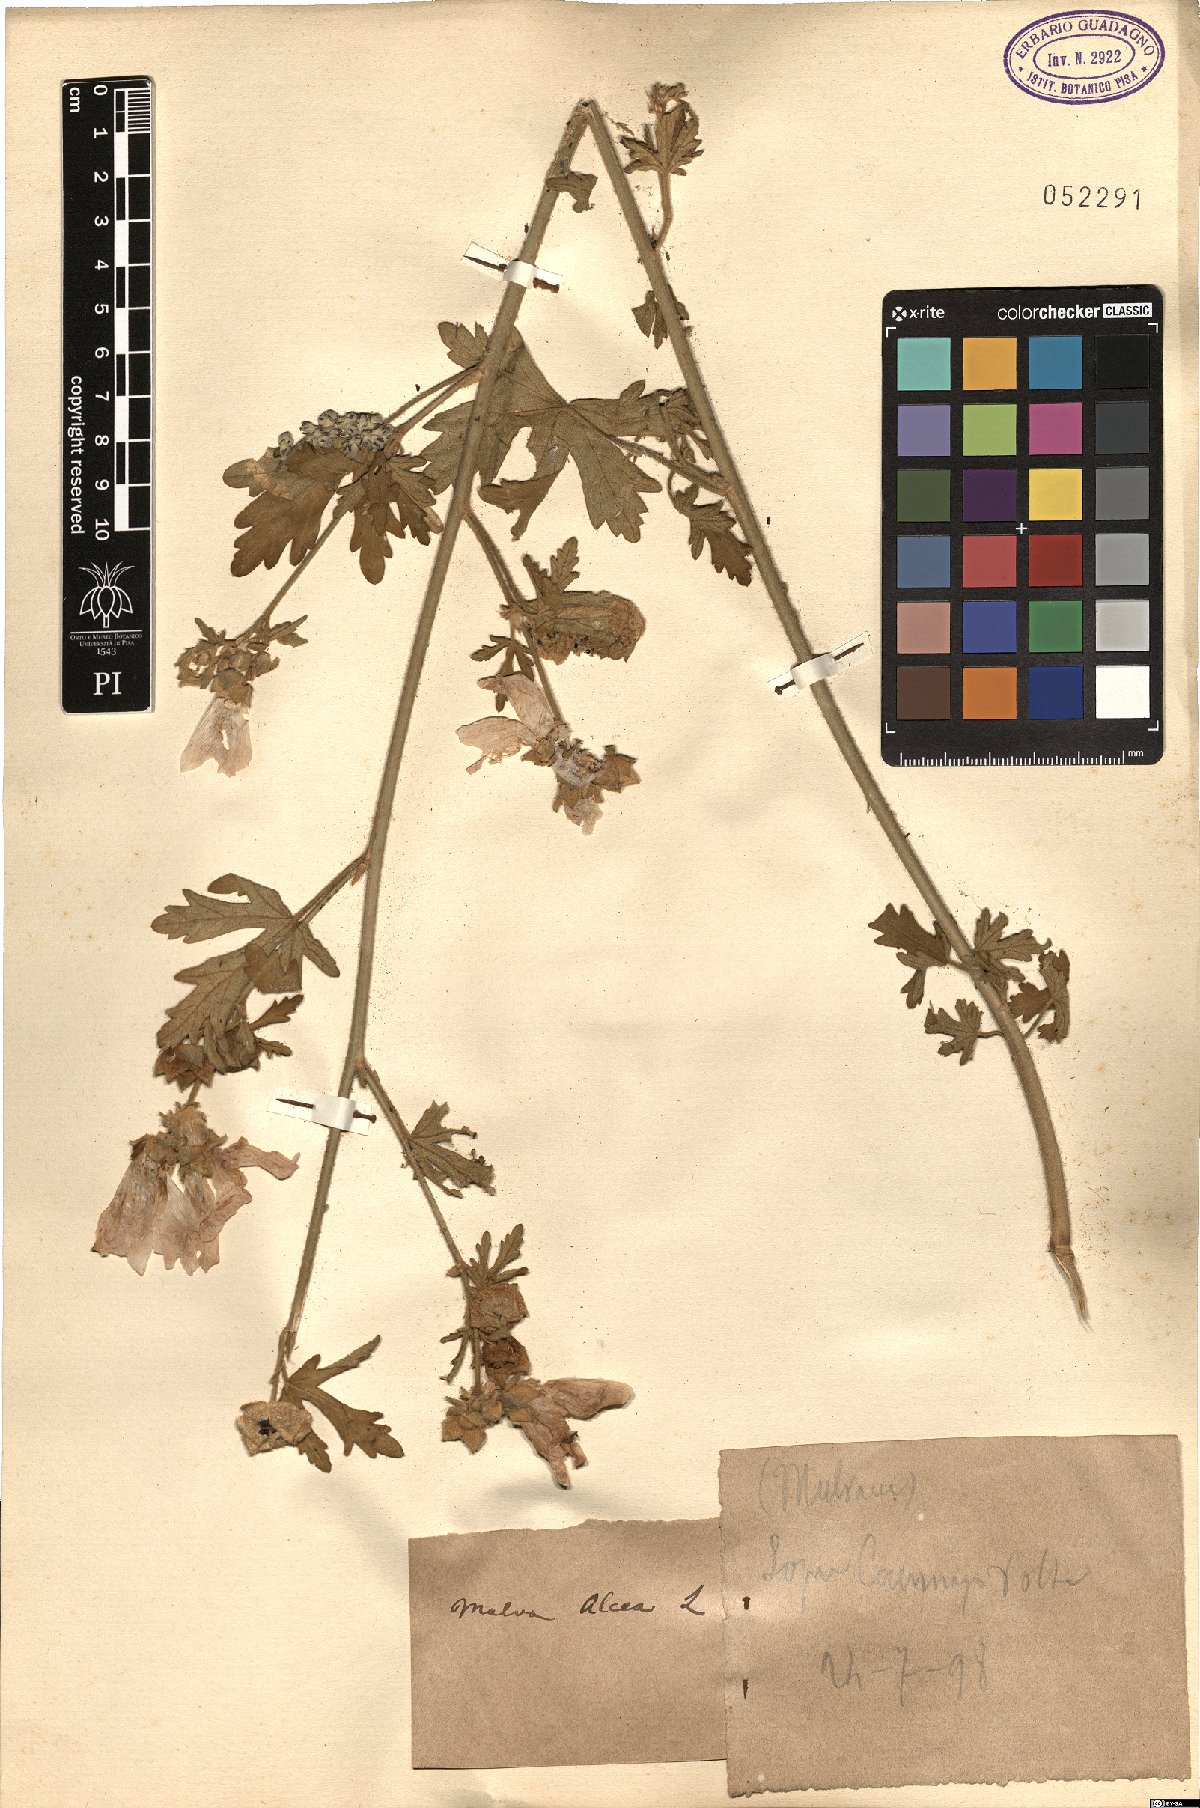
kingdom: Plantae
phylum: Tracheophyta
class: Magnoliopsida
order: Malvales
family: Malvaceae
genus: Malva
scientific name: Malva alcea
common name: Greater musk-mallow
